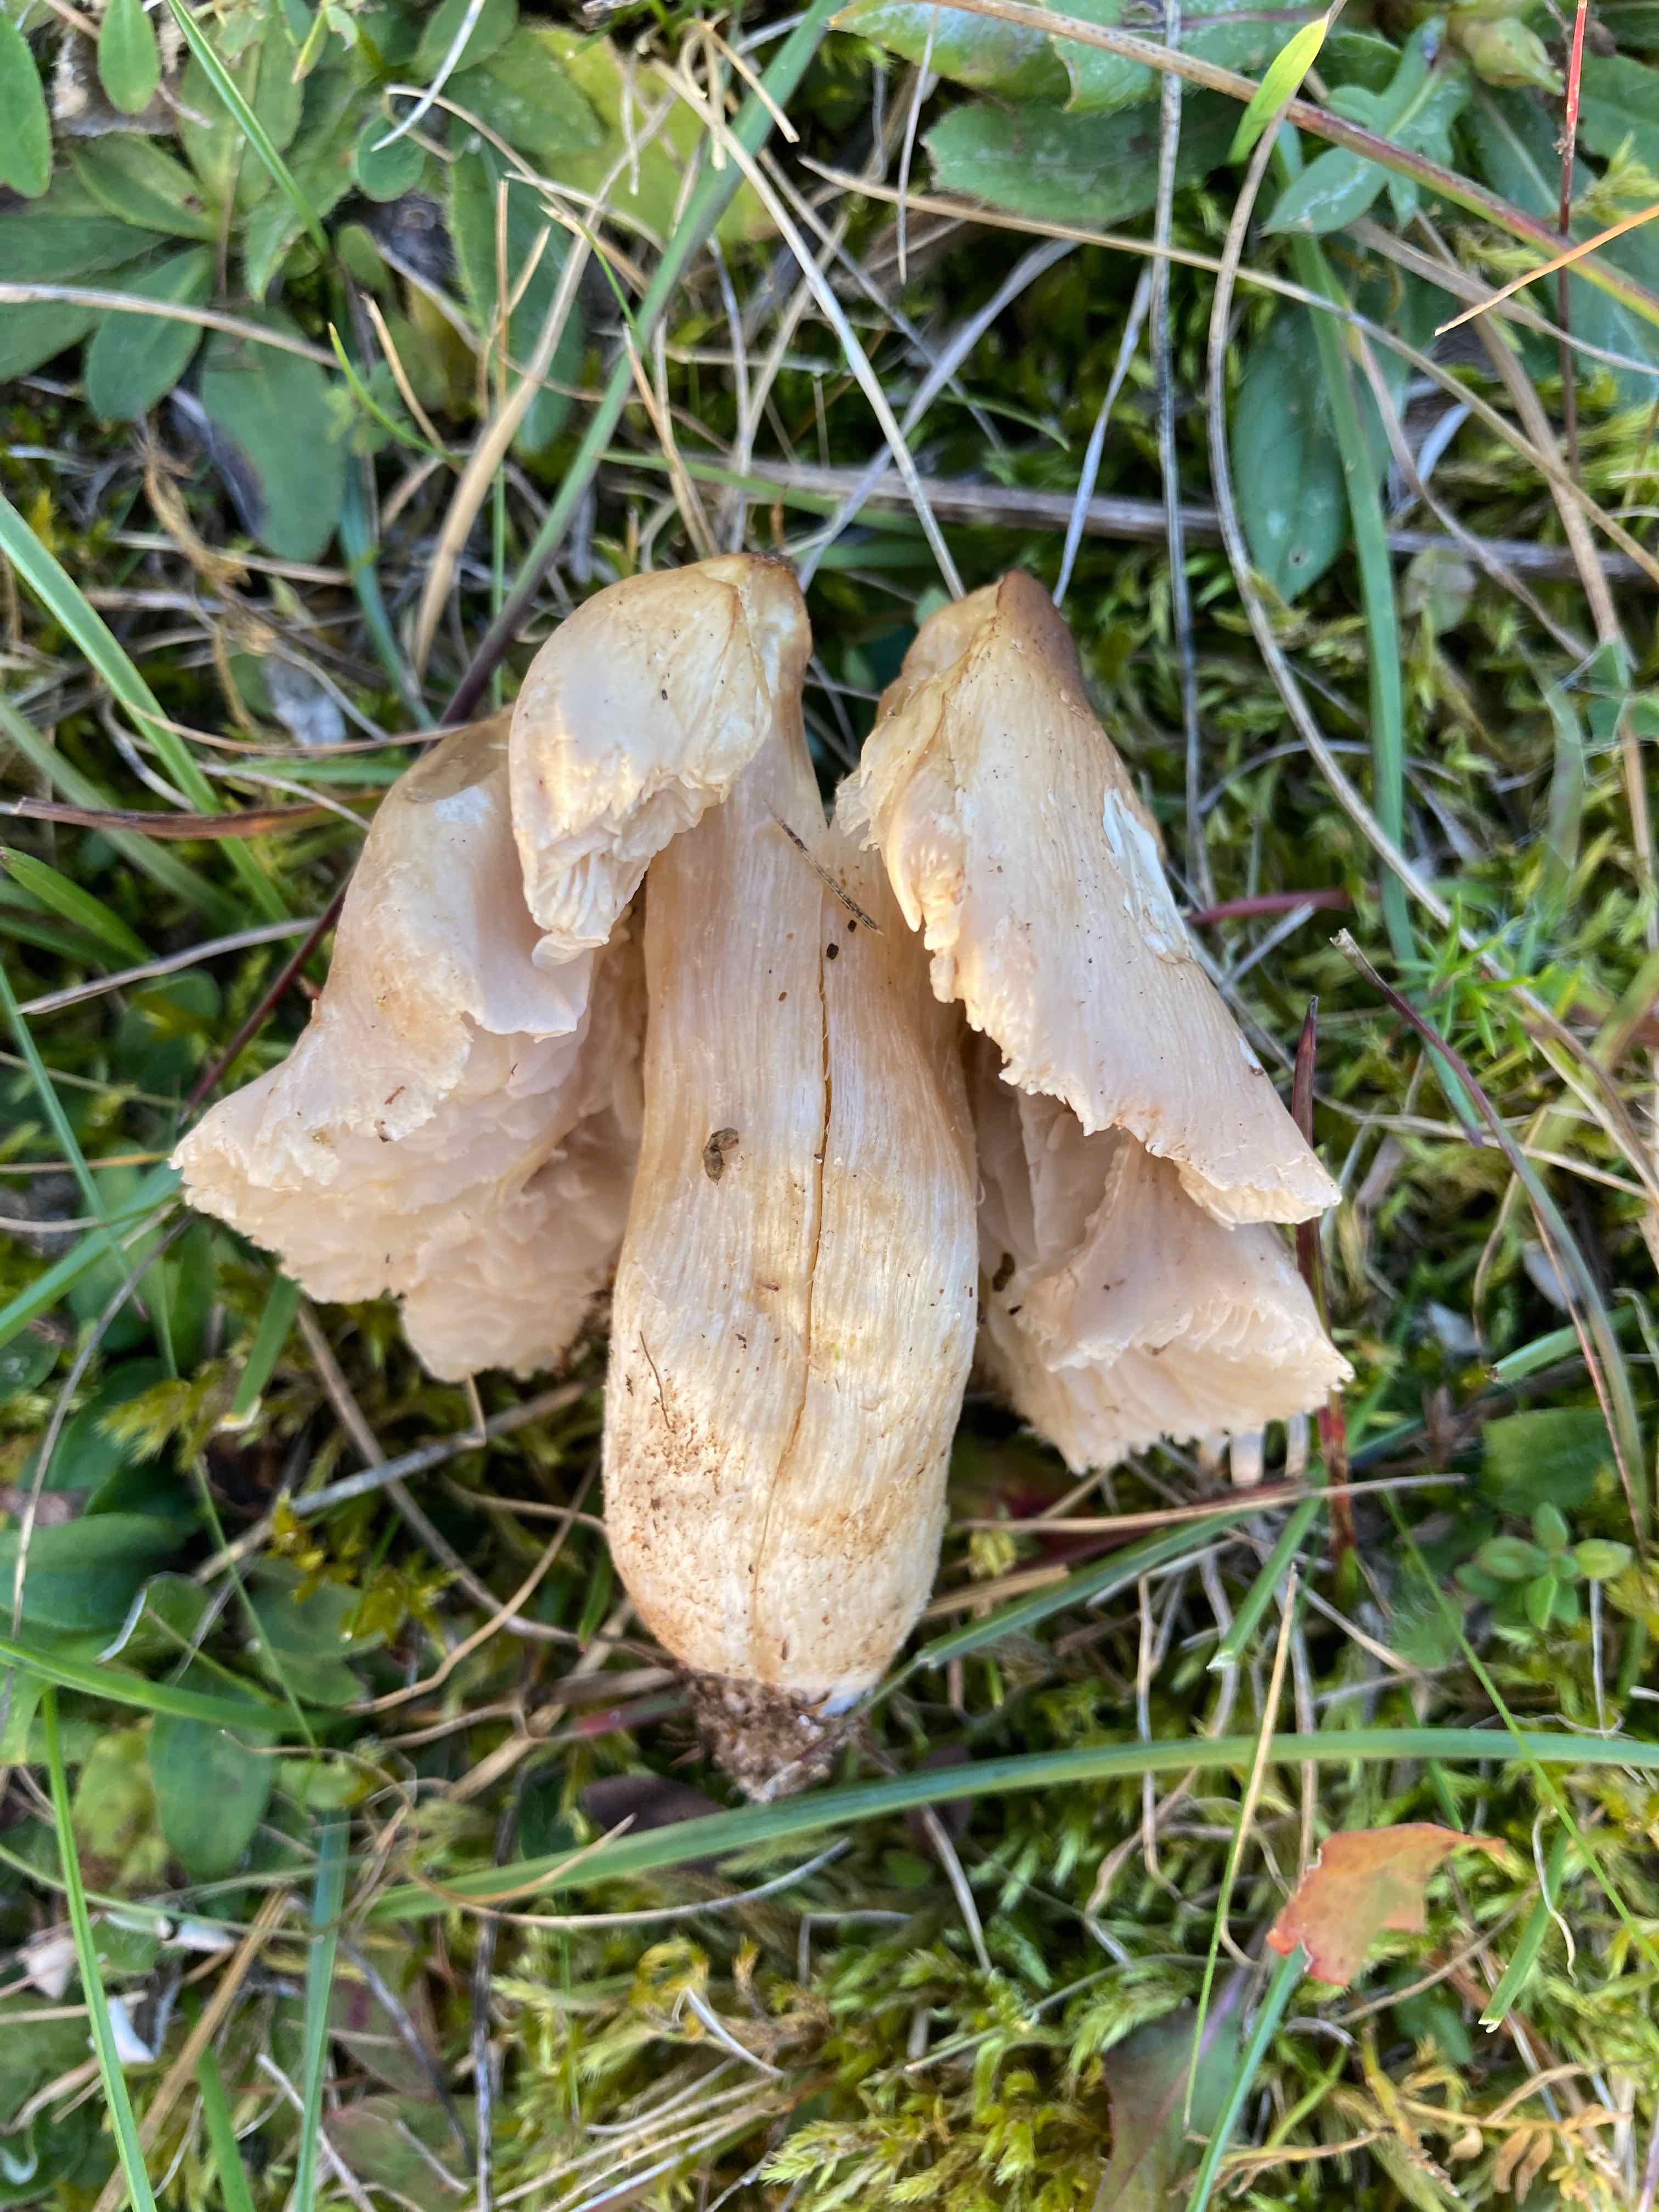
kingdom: Fungi
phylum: Basidiomycota
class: Agaricomycetes
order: Agaricales
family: Entolomataceae
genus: Entoloma
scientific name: Entoloma prunuloides
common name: mel-rødblad
